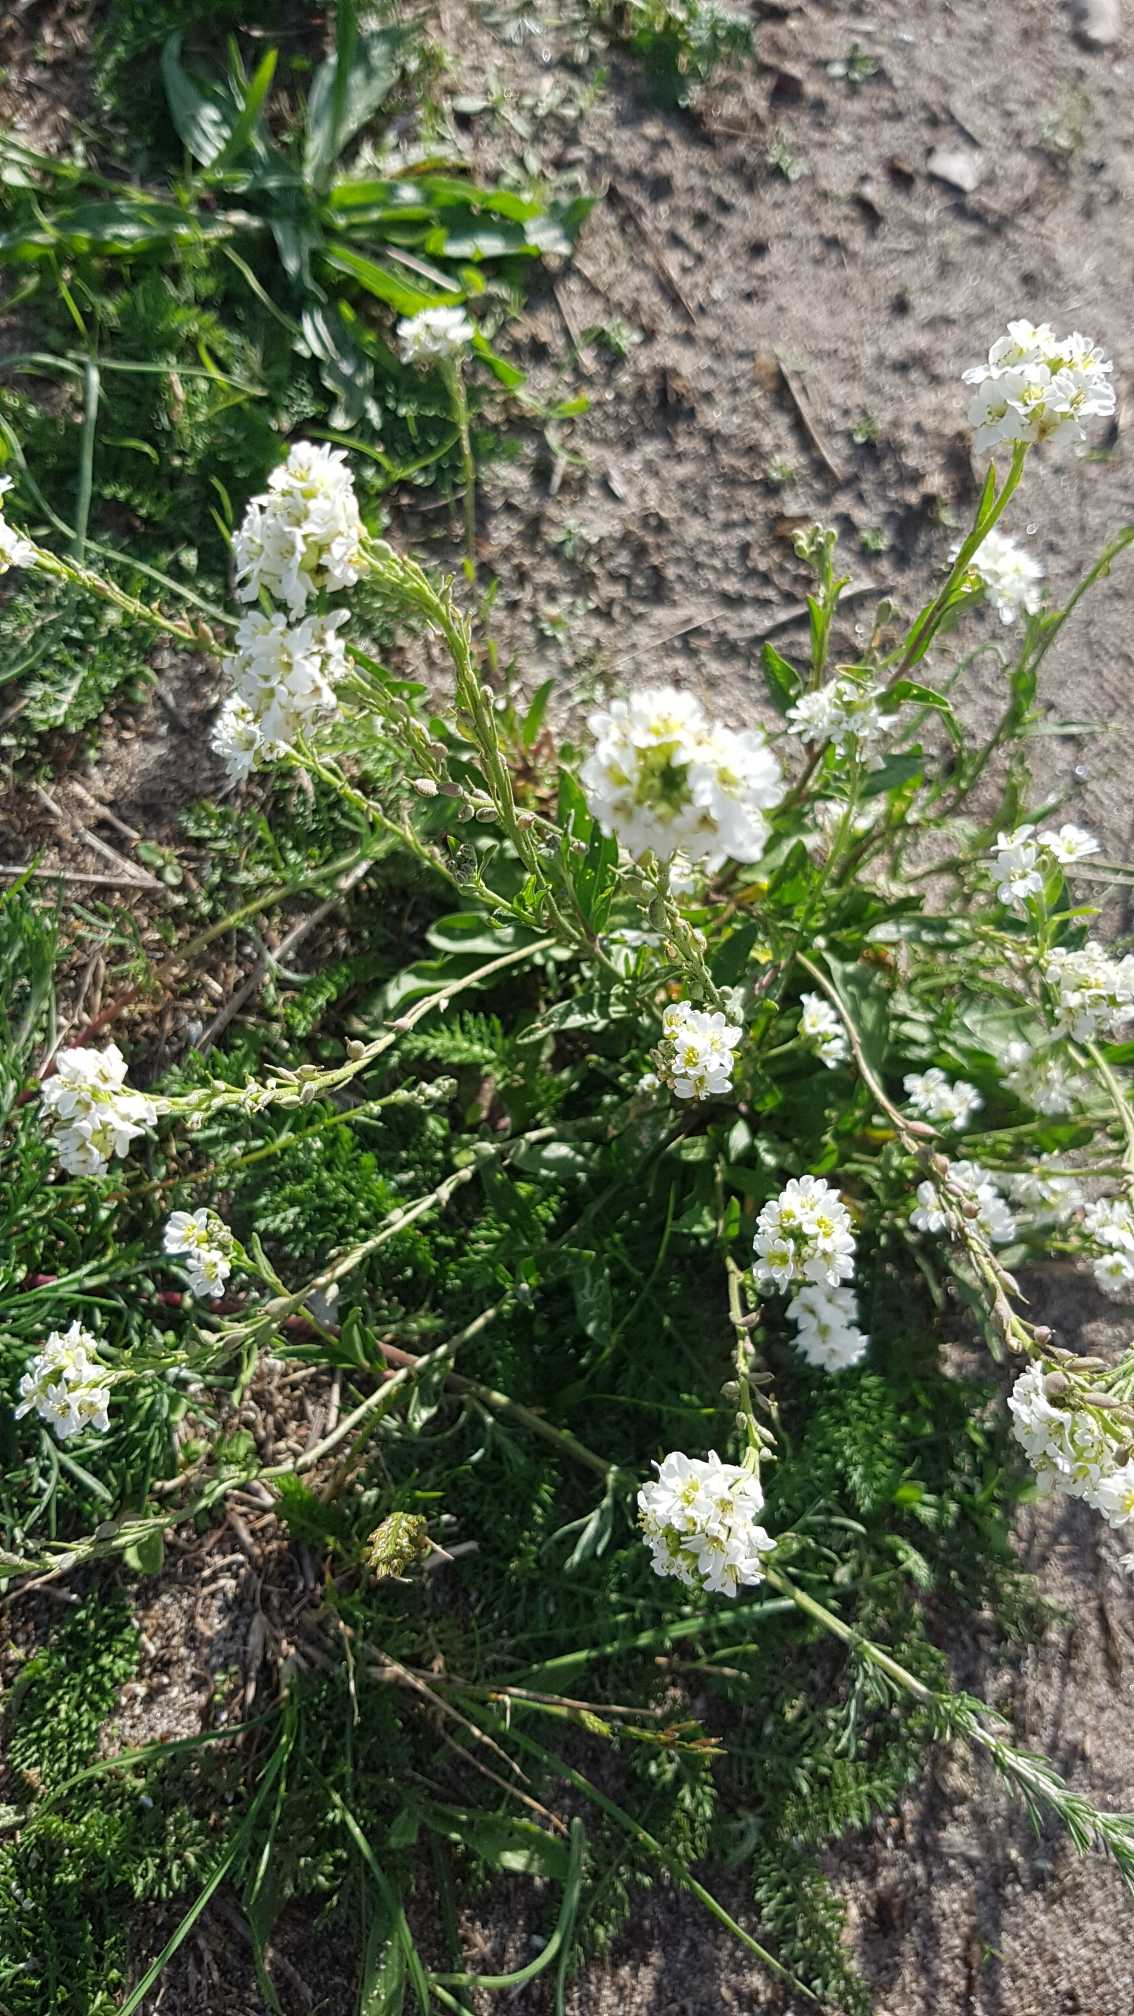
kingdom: Plantae
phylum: Tracheophyta
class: Magnoliopsida
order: Brassicales
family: Brassicaceae
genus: Berteroa
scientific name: Berteroa incana
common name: Kløvplade
